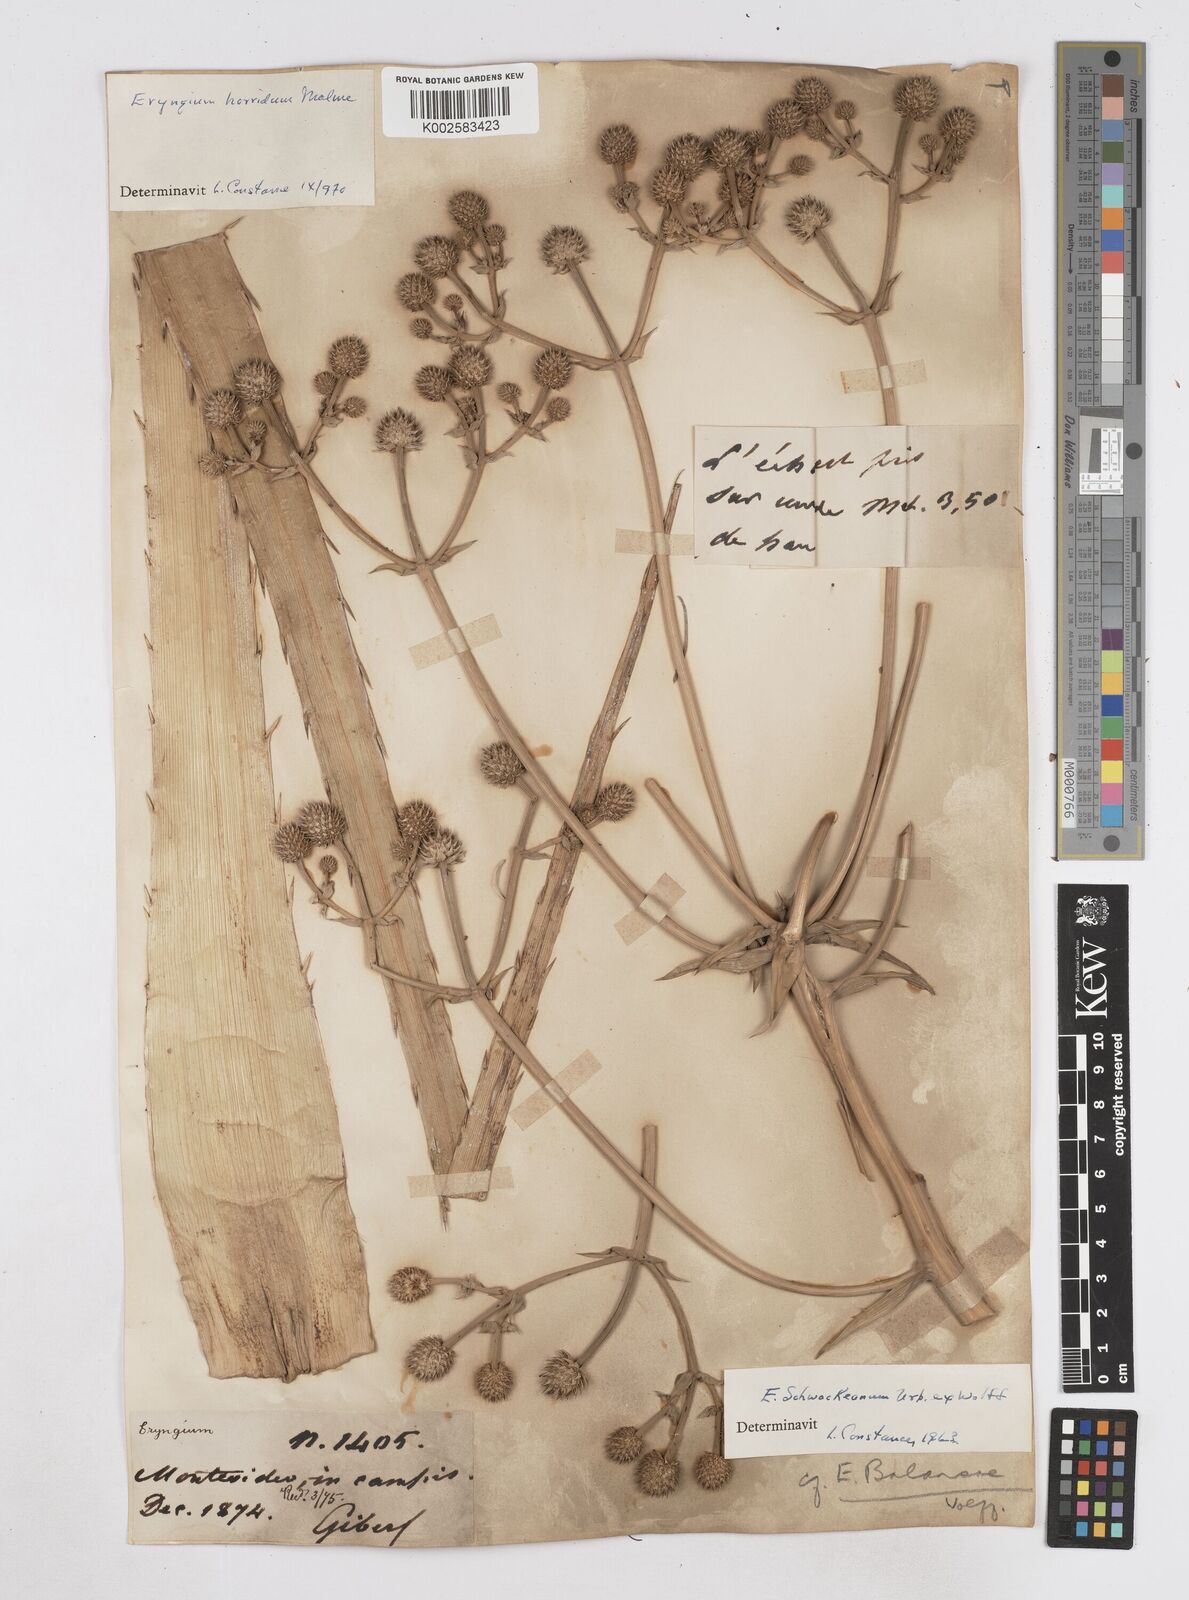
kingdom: Plantae
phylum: Tracheophyta
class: Magnoliopsida
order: Apiales
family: Apiaceae
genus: Eryngium
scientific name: Eryngium humboldtii
